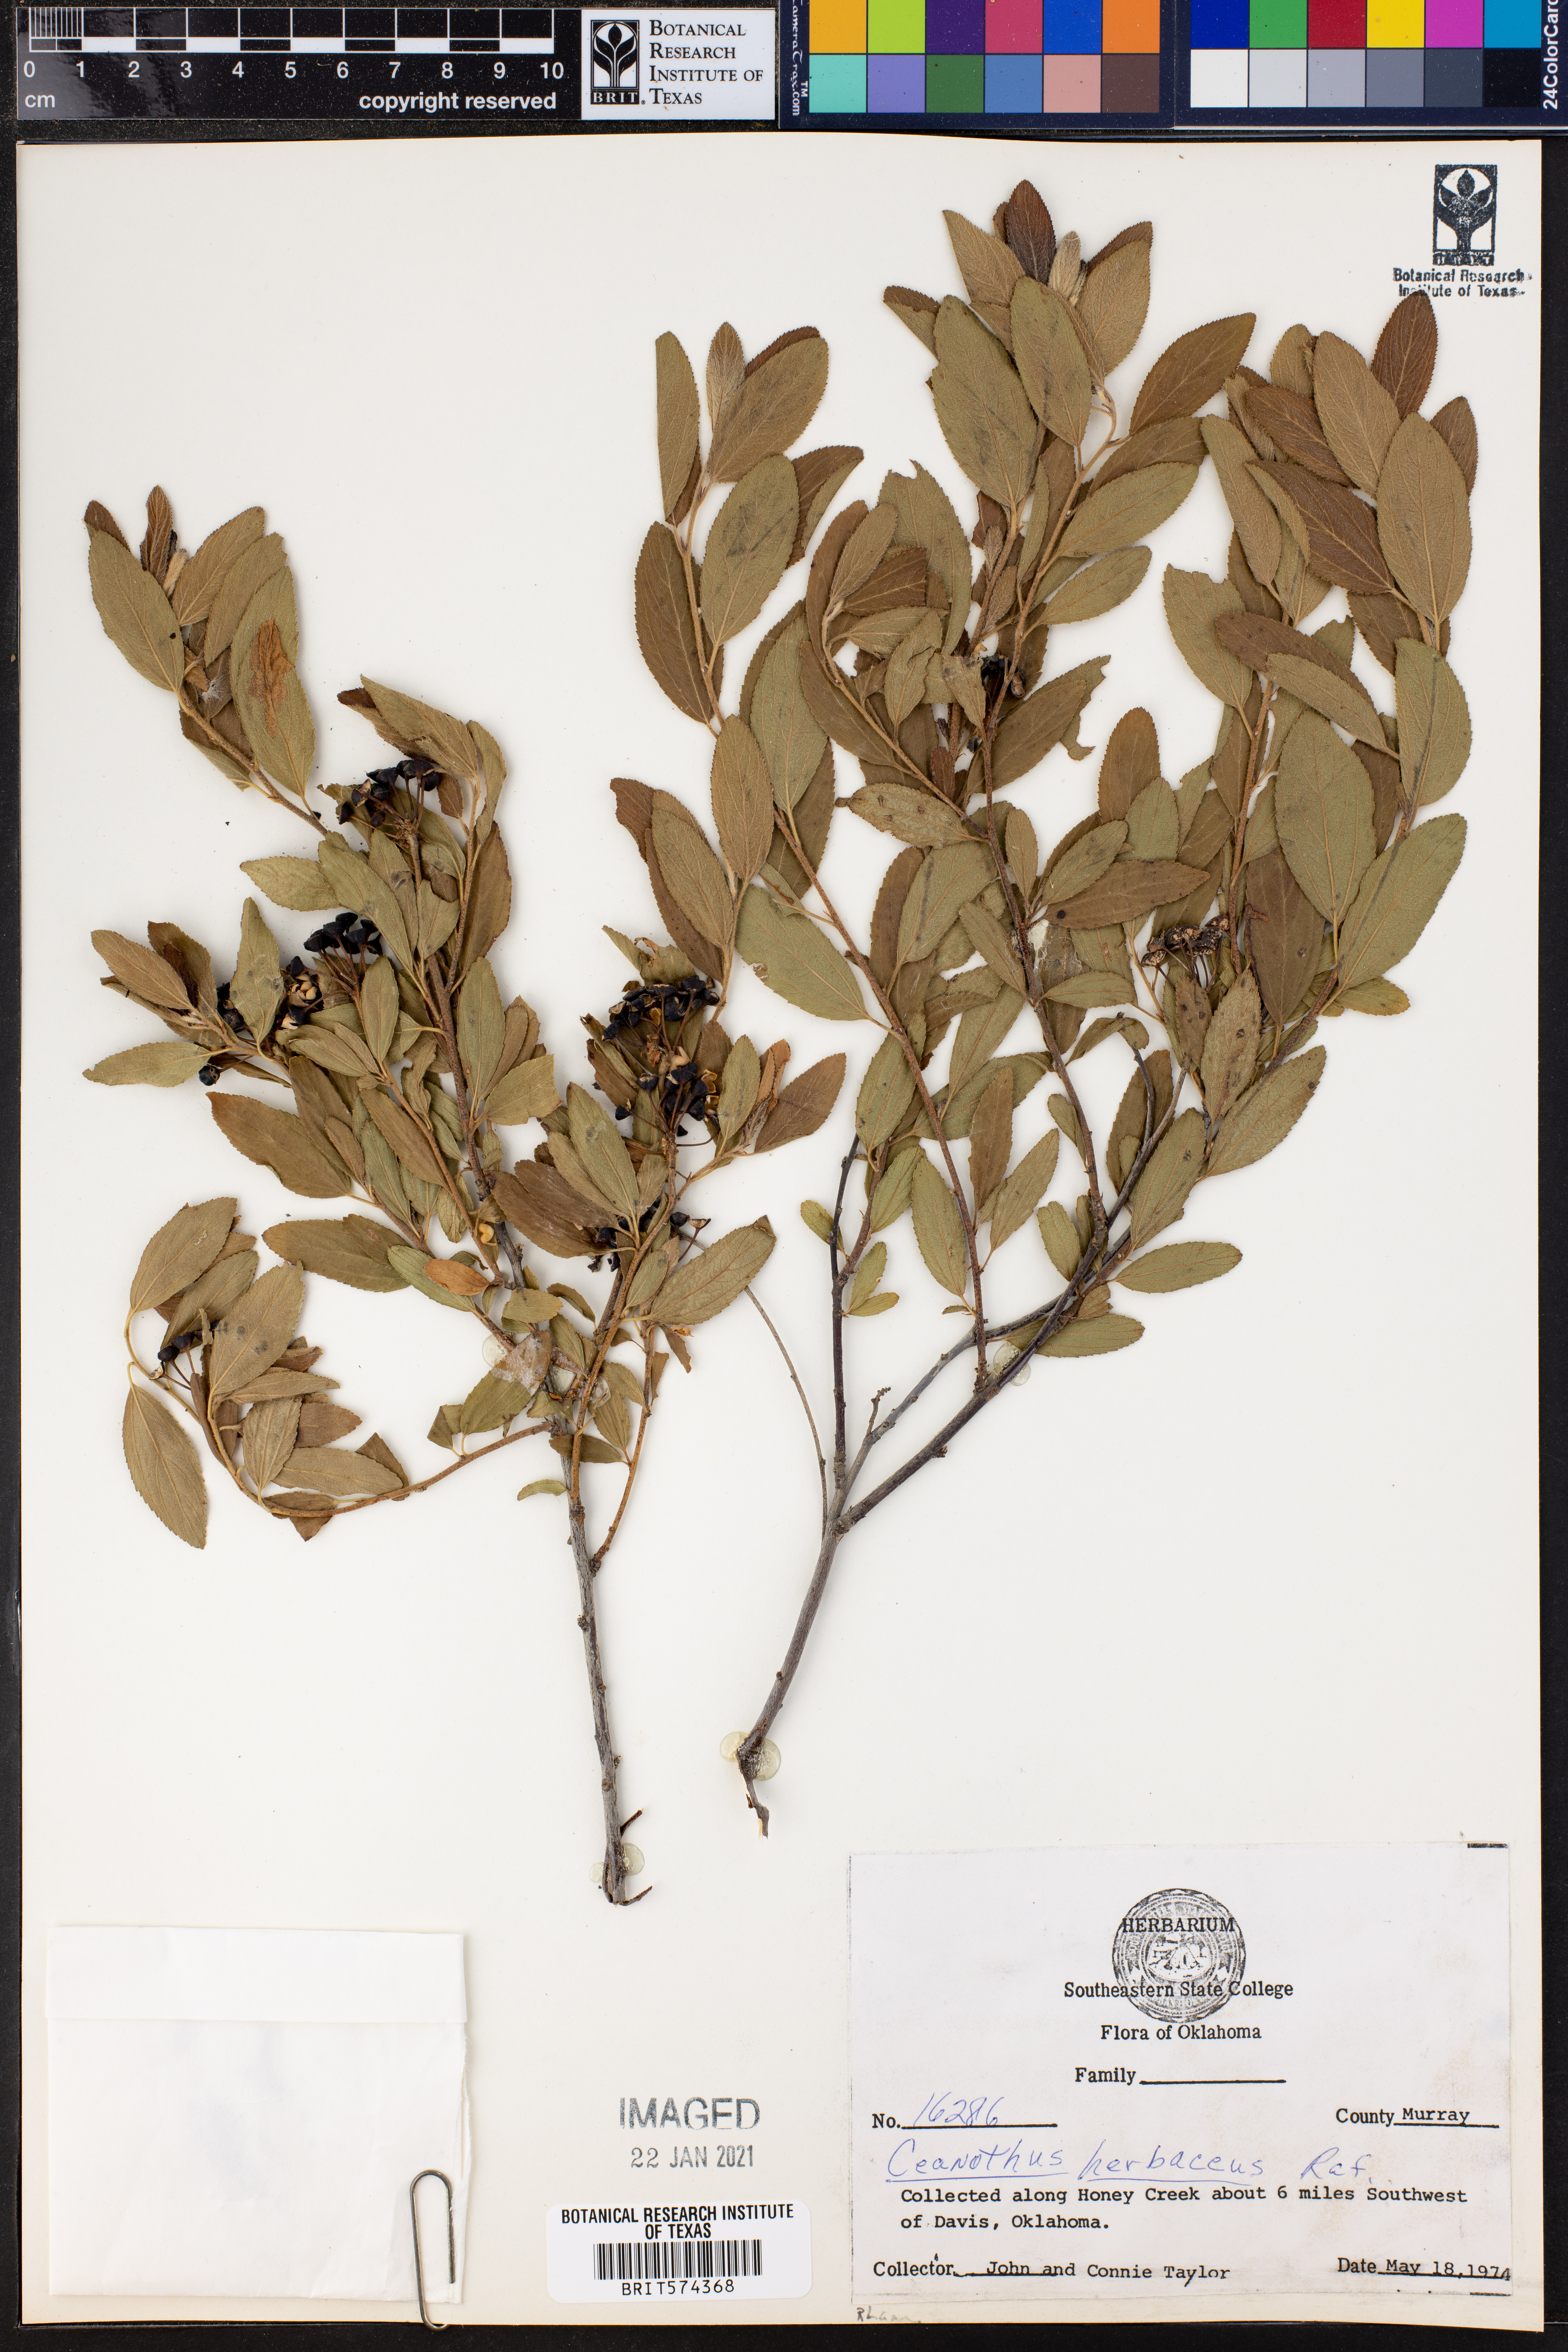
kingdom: Plantae
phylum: Tracheophyta
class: Magnoliopsida
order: Rosales
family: Rhamnaceae
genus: Ceanothus
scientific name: Ceanothus herbaceus
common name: Inland ceanothus
